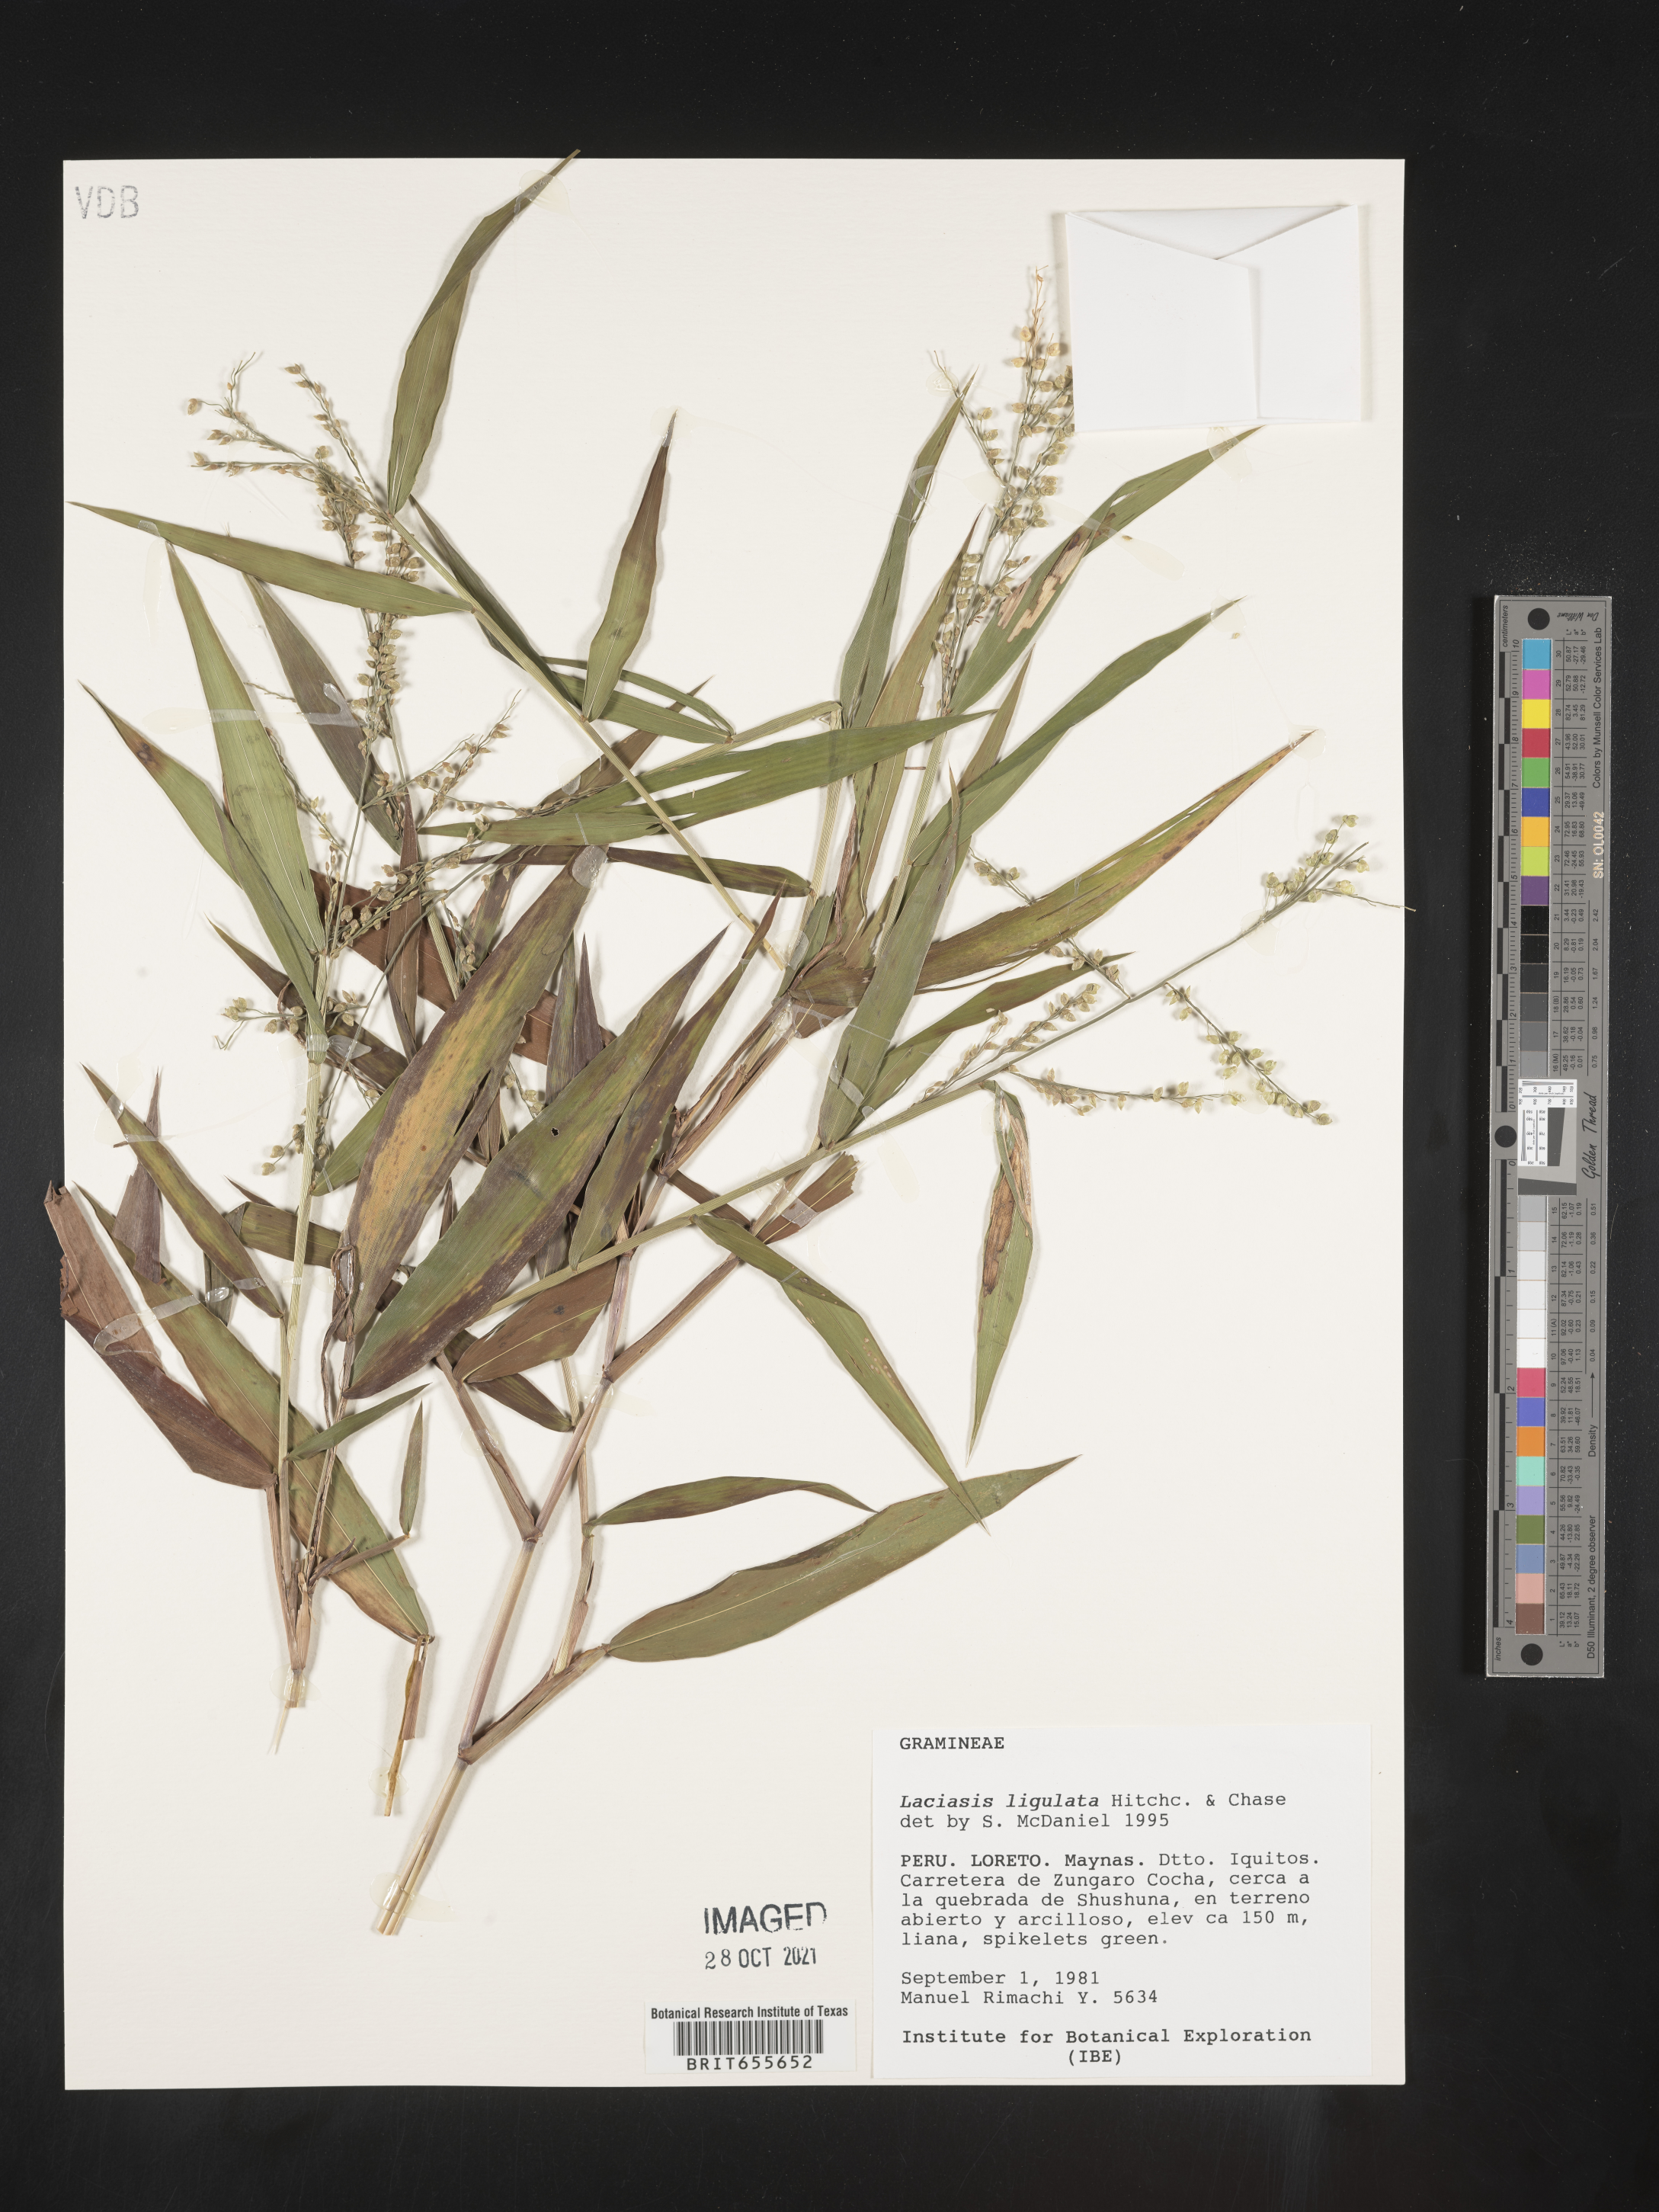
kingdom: Plantae
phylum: Tracheophyta
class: Liliopsida
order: Poales
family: Poaceae
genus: Lasiacis
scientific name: Lasiacis
